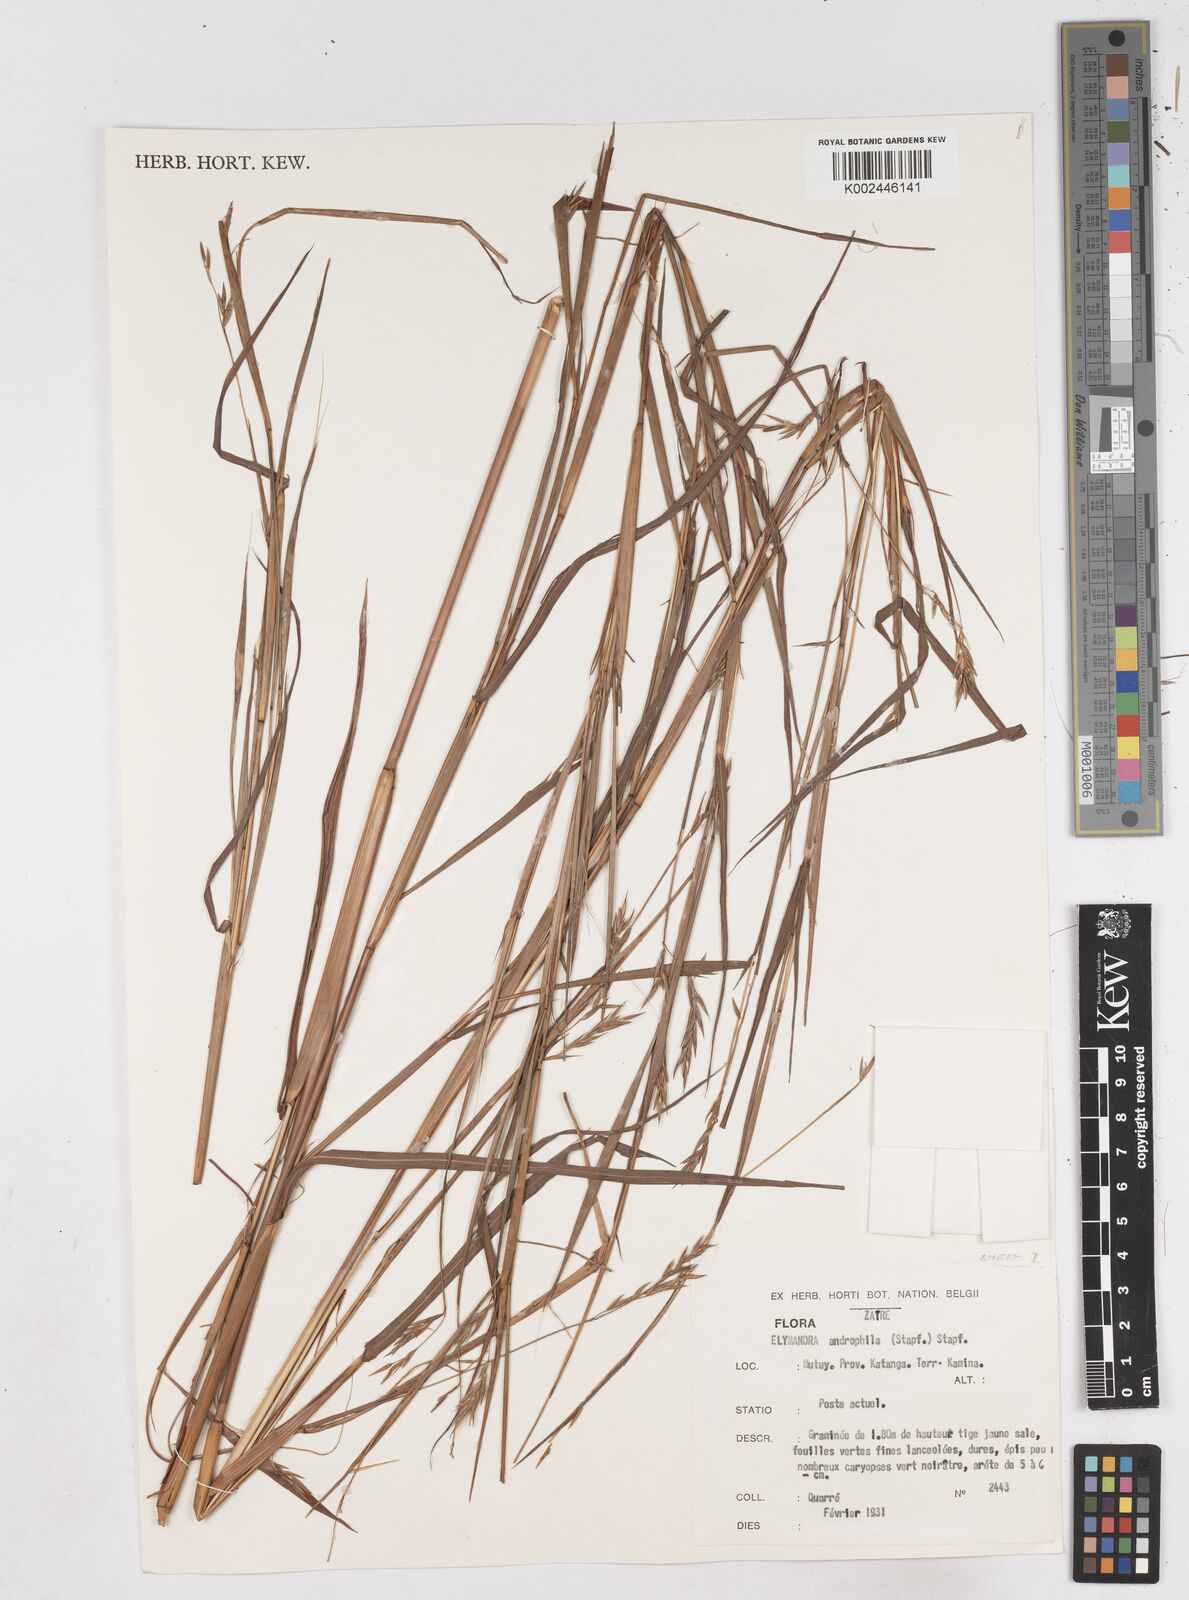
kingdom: Plantae
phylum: Tracheophyta
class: Liliopsida
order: Poales
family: Poaceae
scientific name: Poaceae
